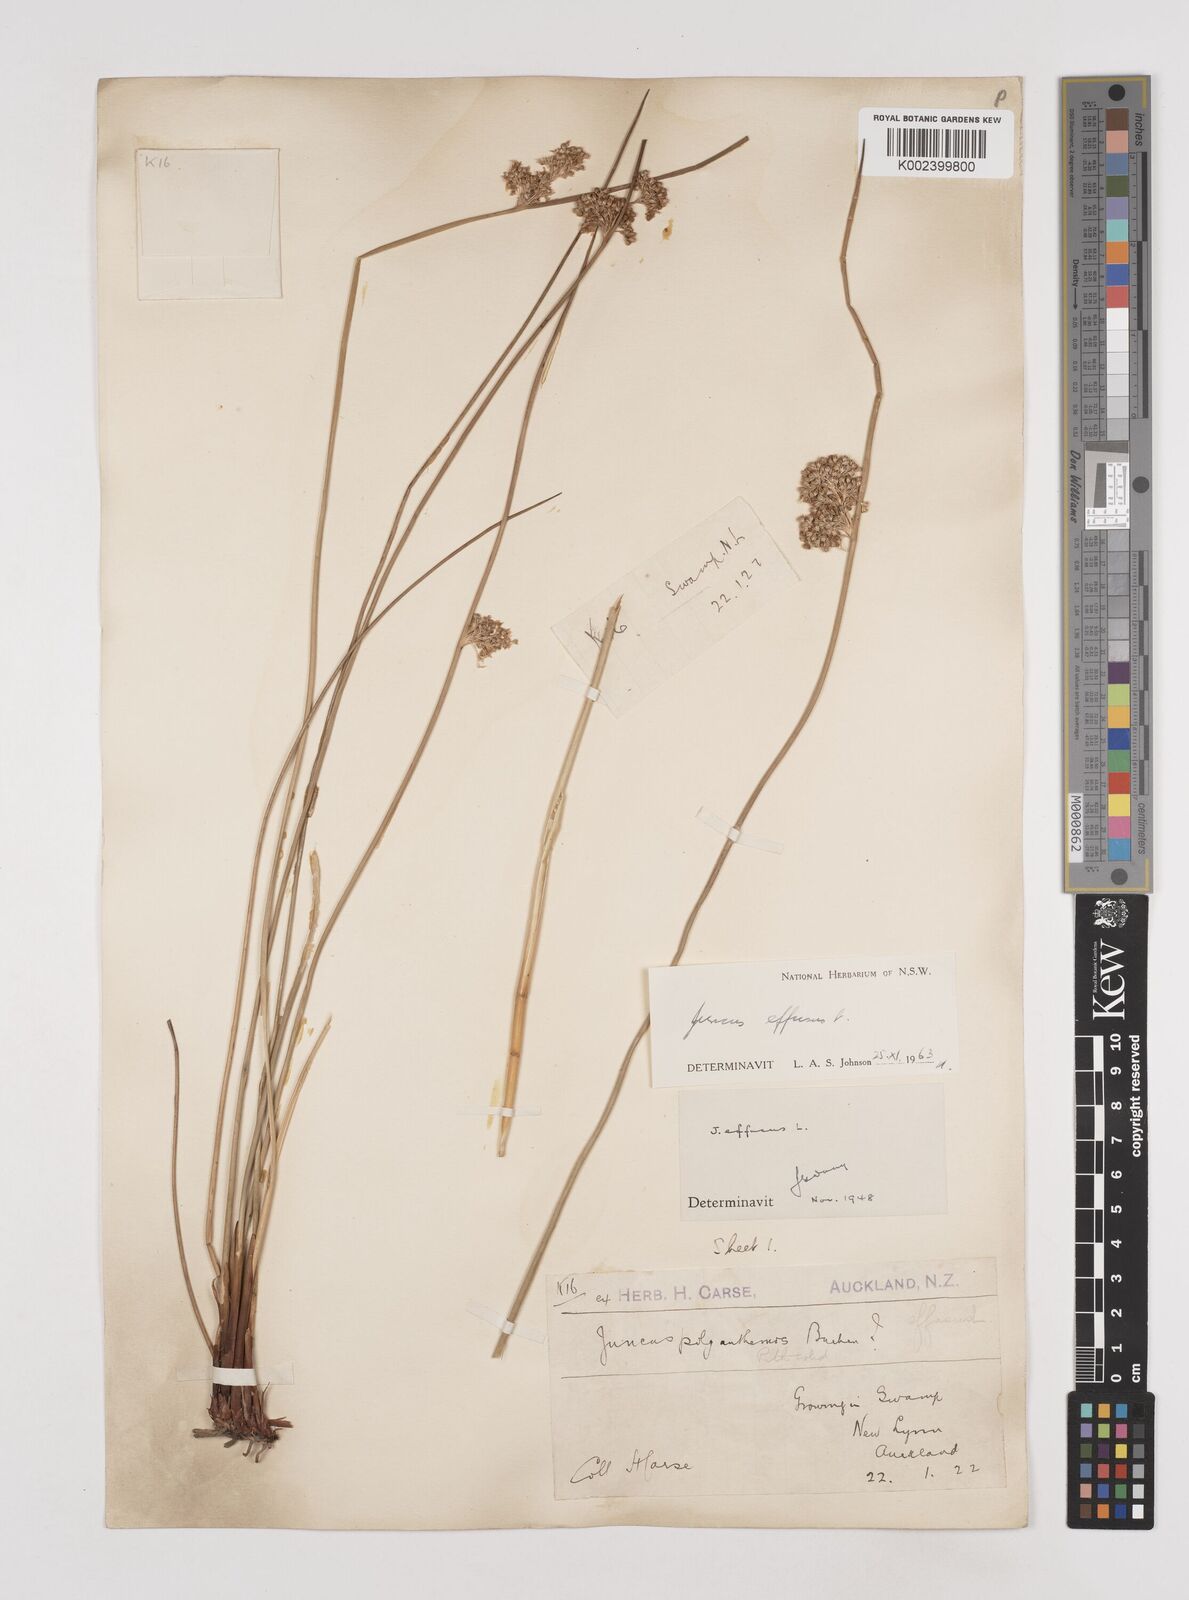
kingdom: Plantae
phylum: Tracheophyta
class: Liliopsida
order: Poales
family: Juncaceae
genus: Juncus
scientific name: Juncus effusus
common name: Soft rush
